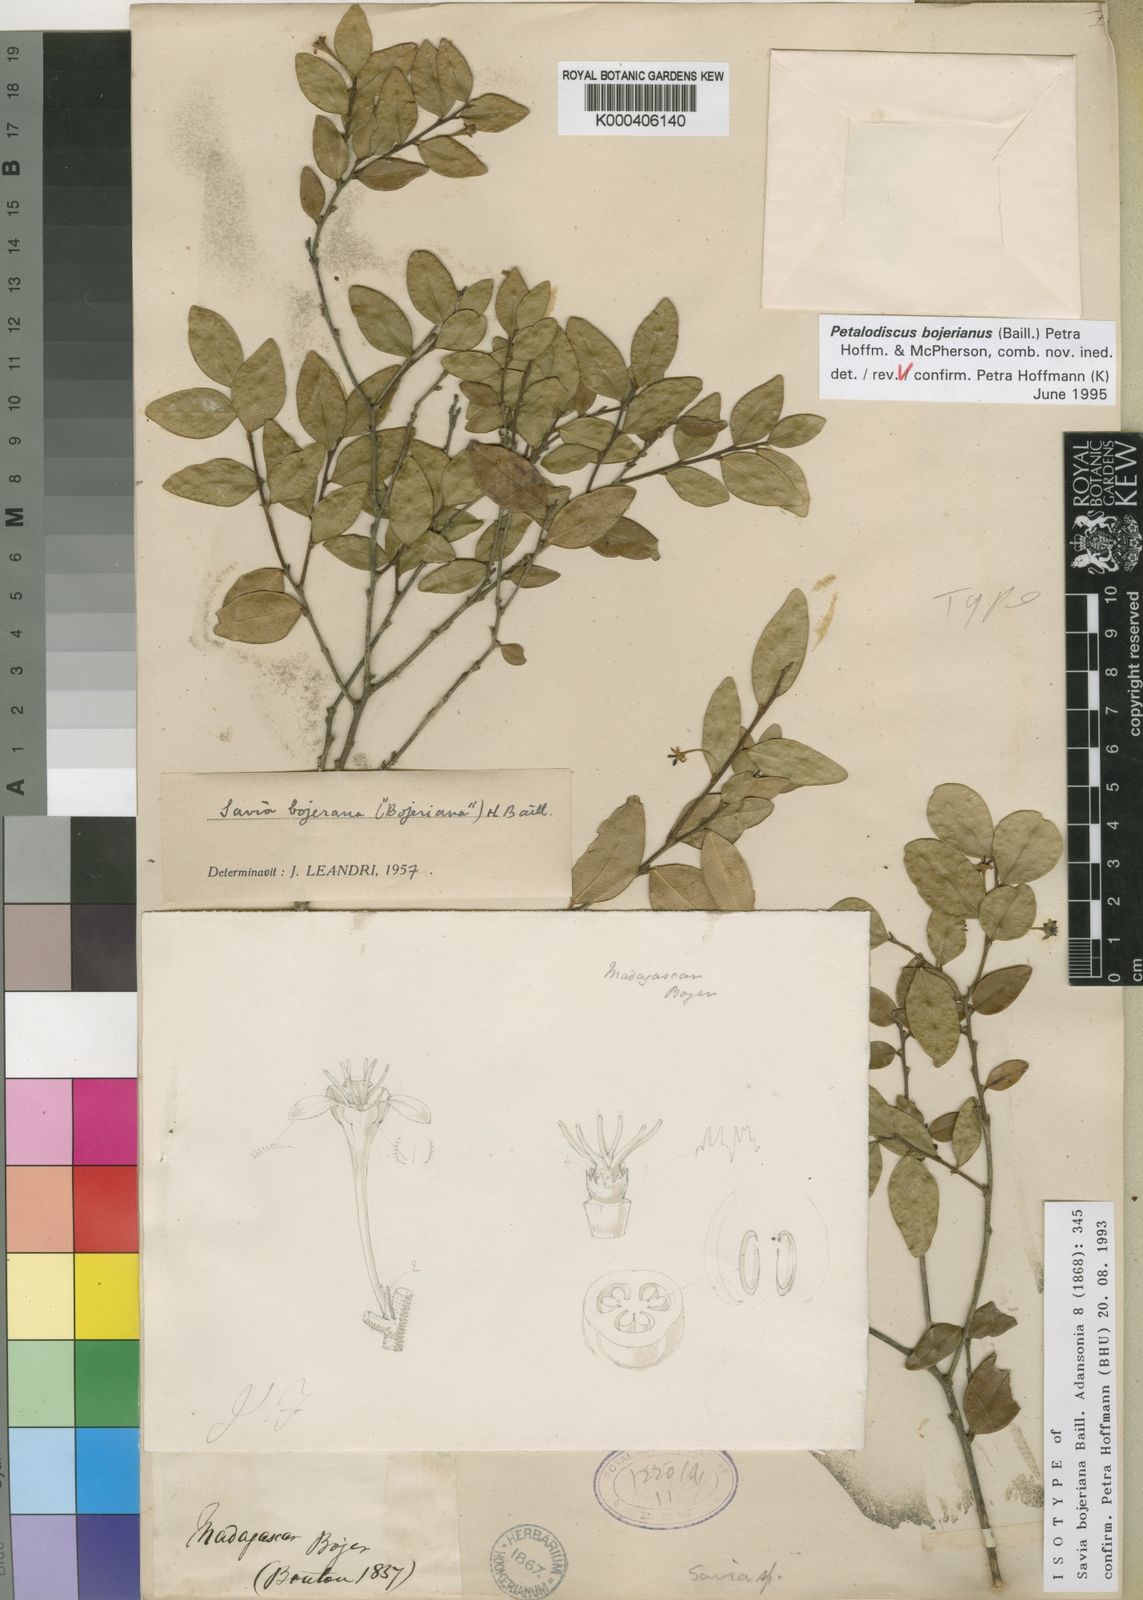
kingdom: Plantae
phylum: Tracheophyta
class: Magnoliopsida
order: Malpighiales
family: Phyllanthaceae
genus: Wielandia
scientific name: Wielandia
